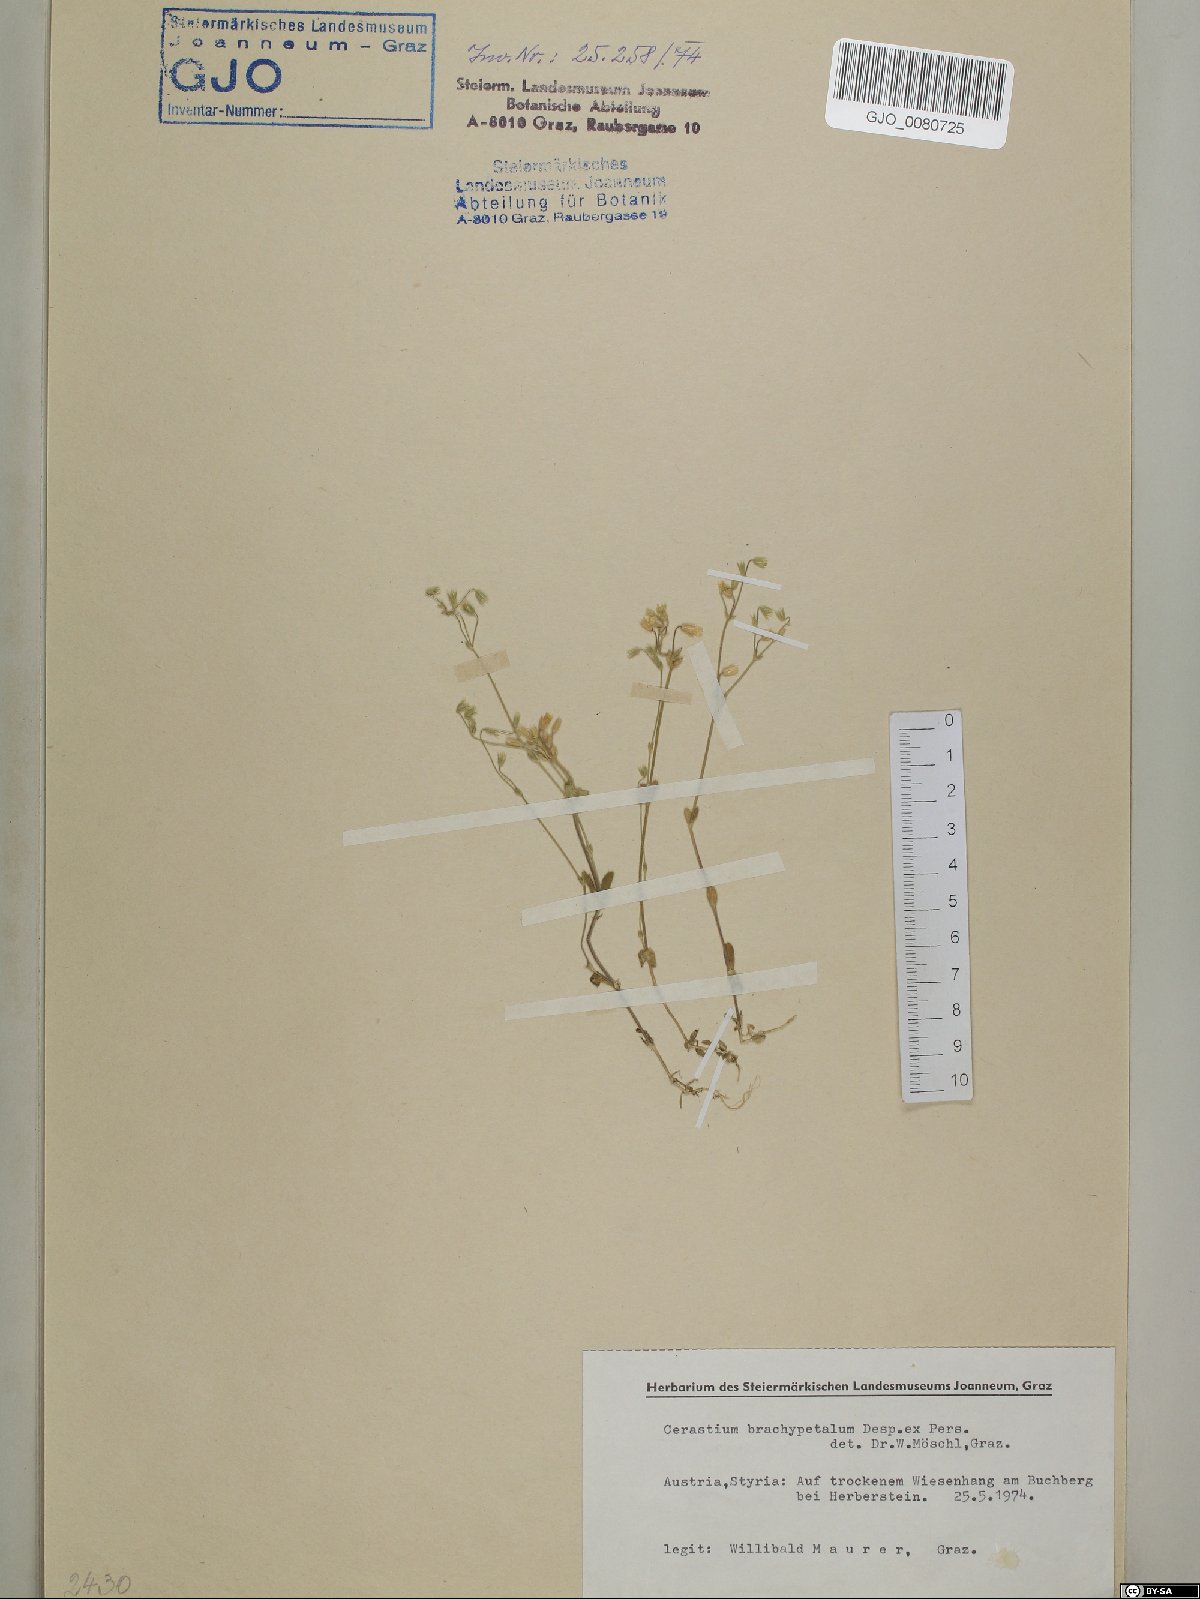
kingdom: Plantae
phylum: Tracheophyta
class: Magnoliopsida
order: Caryophyllales
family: Caryophyllaceae
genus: Cerastium
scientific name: Cerastium brachypetalum
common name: Grey mouse-ear
